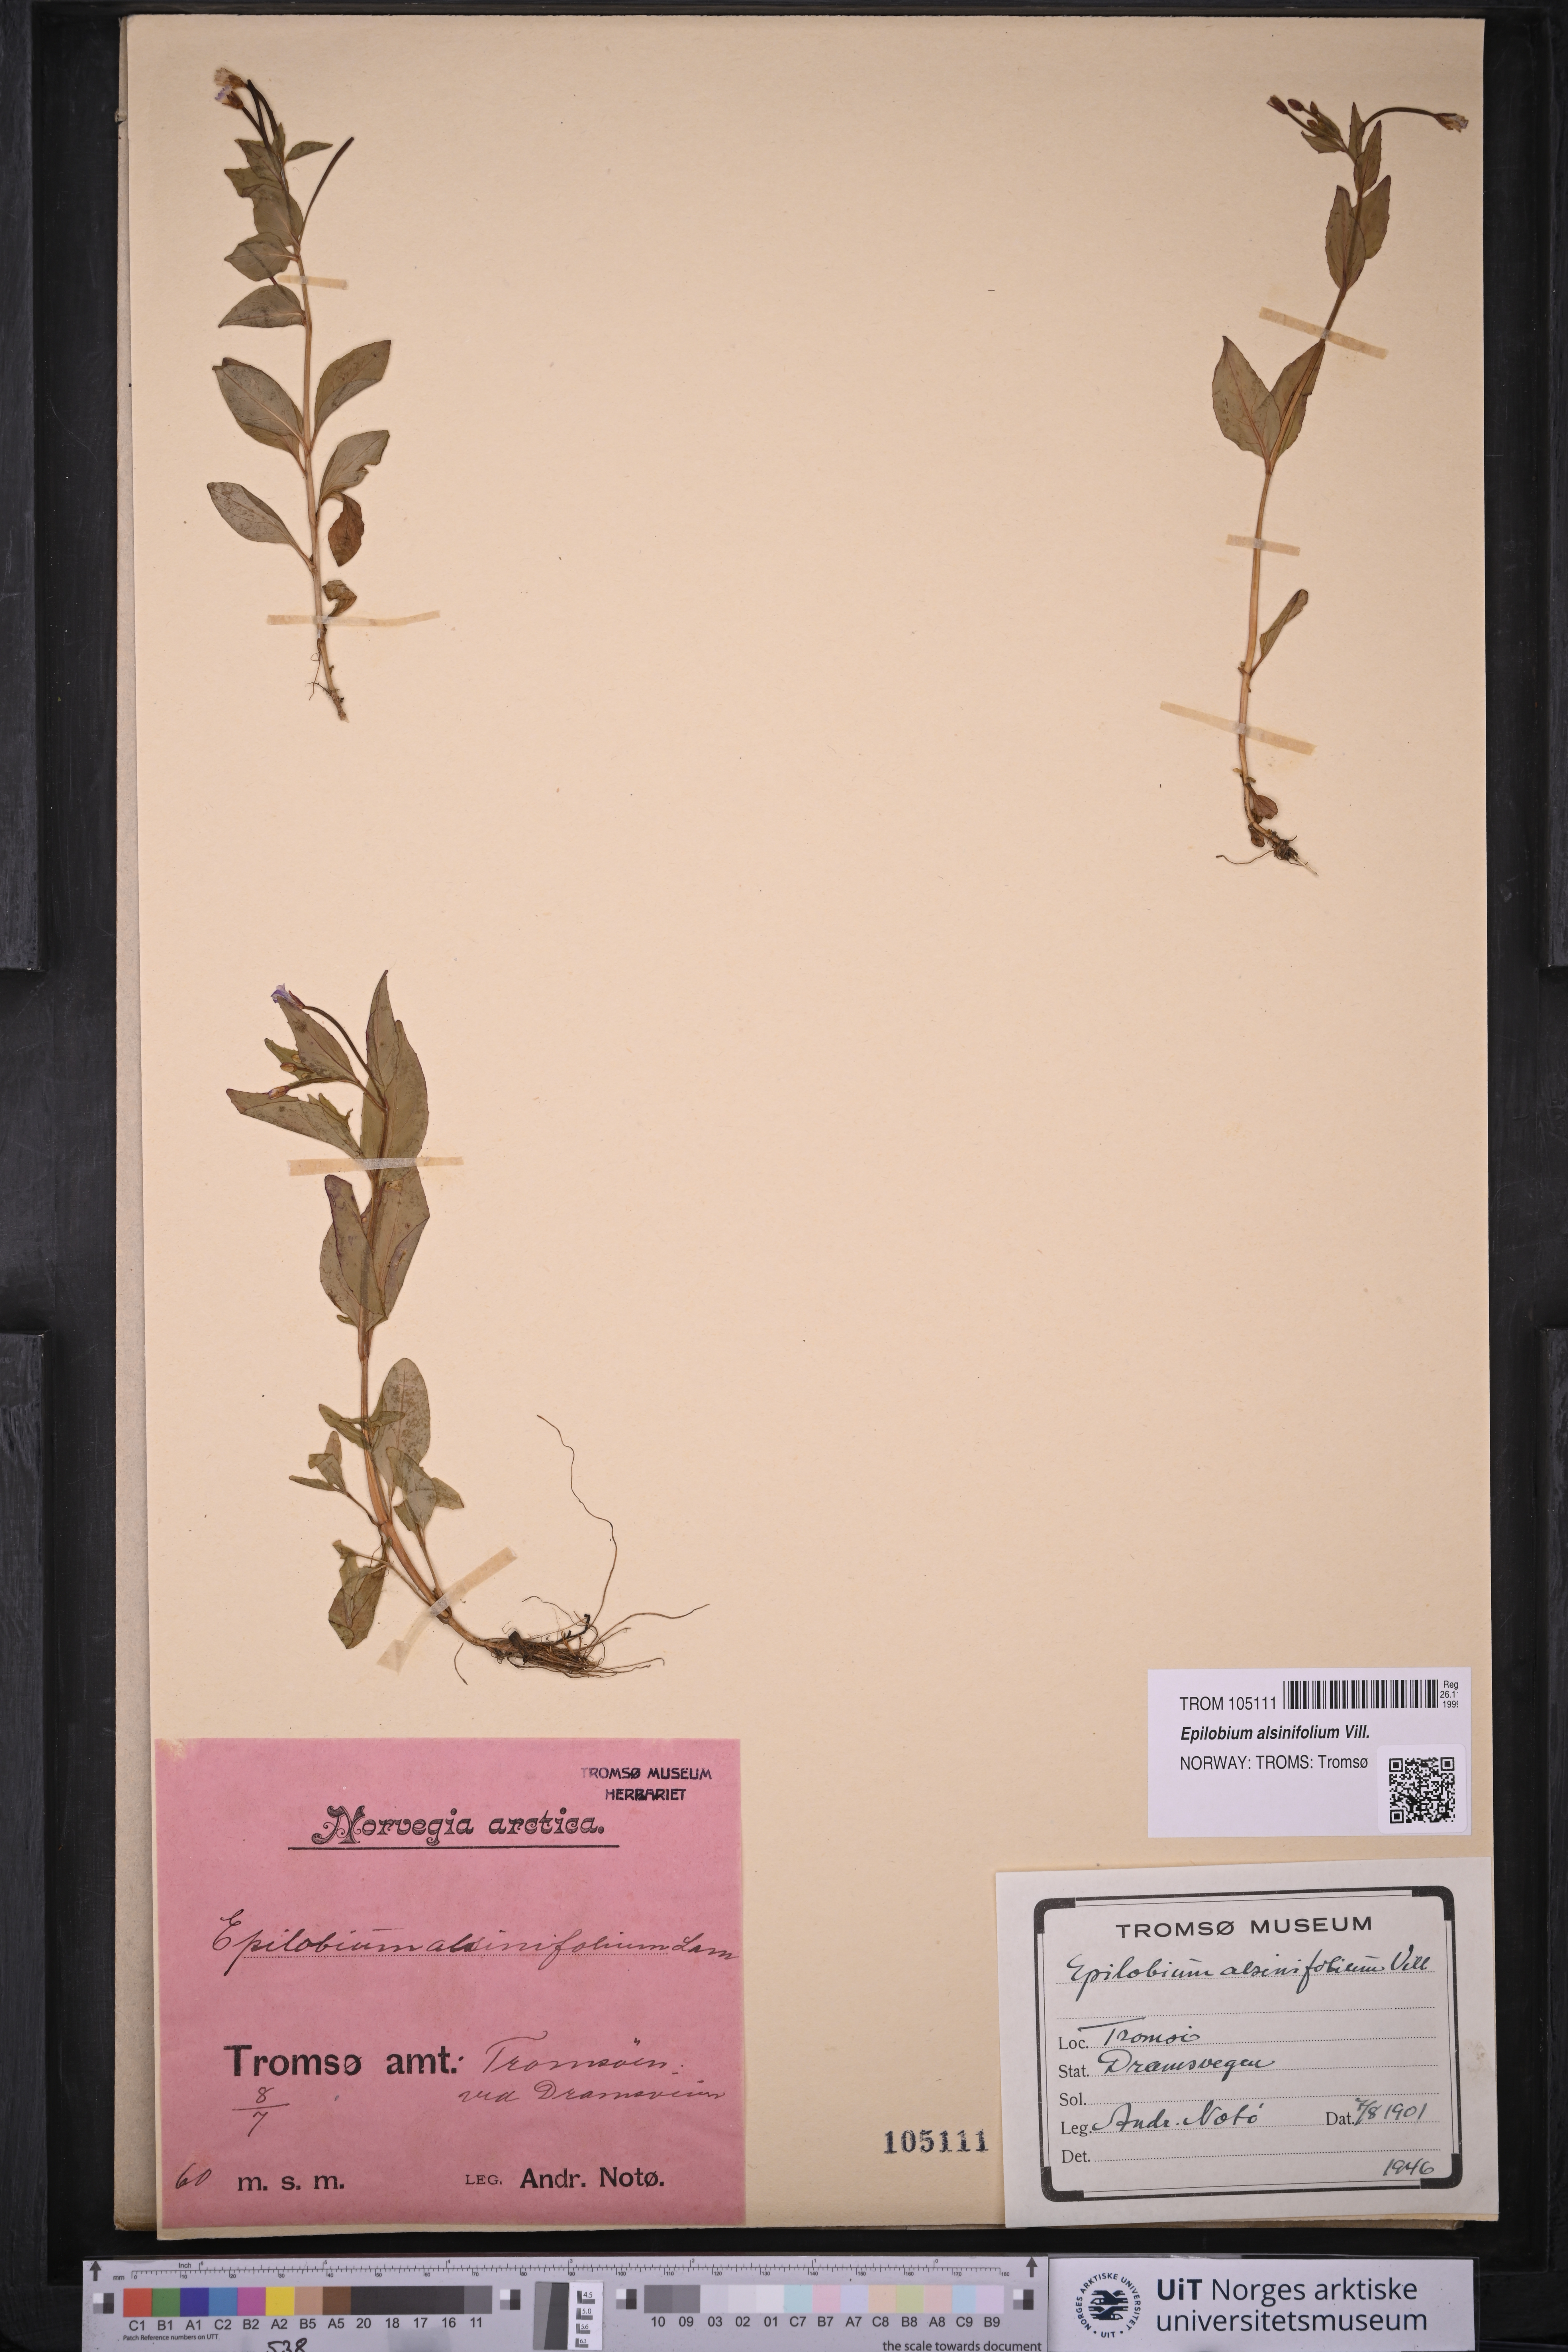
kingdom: Plantae
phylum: Tracheophyta
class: Magnoliopsida
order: Myrtales
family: Onagraceae
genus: Epilobium
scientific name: Epilobium alsinifolium
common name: Chickweed willowherb
